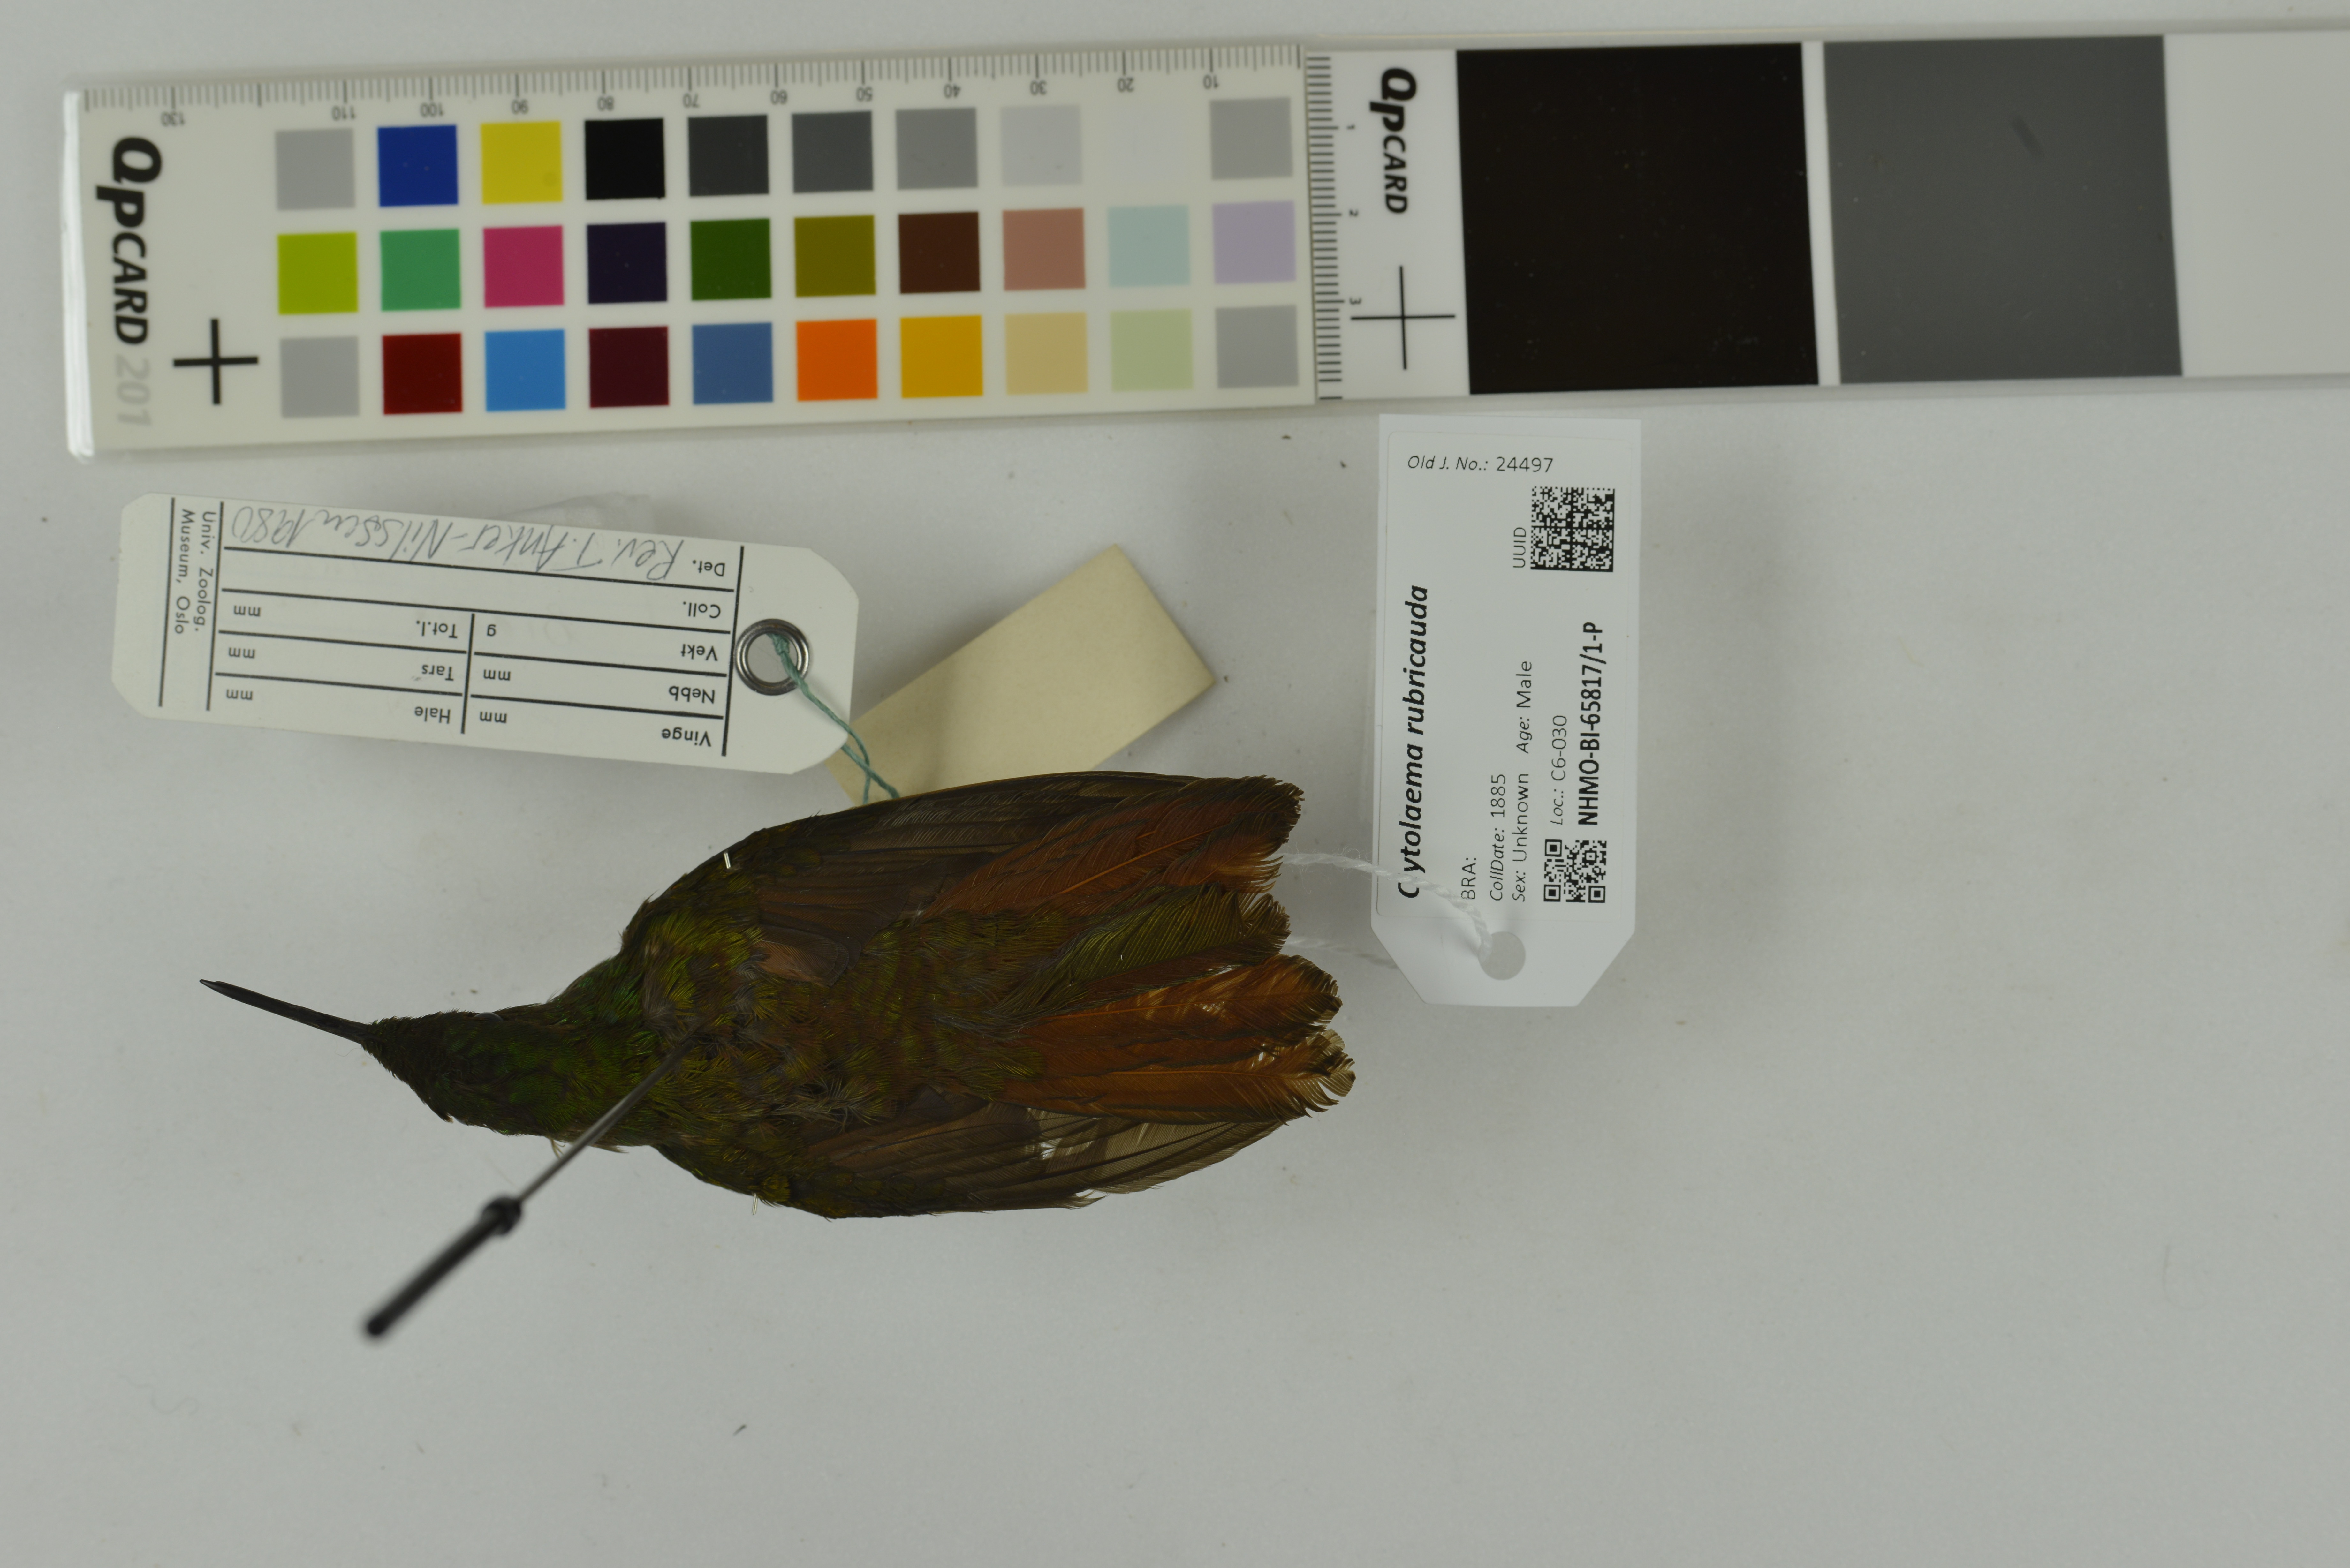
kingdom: Animalia
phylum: Chordata
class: Aves
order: Apodiformes
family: Trochilidae
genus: Clytolaema
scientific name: Clytolaema rubricauda
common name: Brazilian ruby
